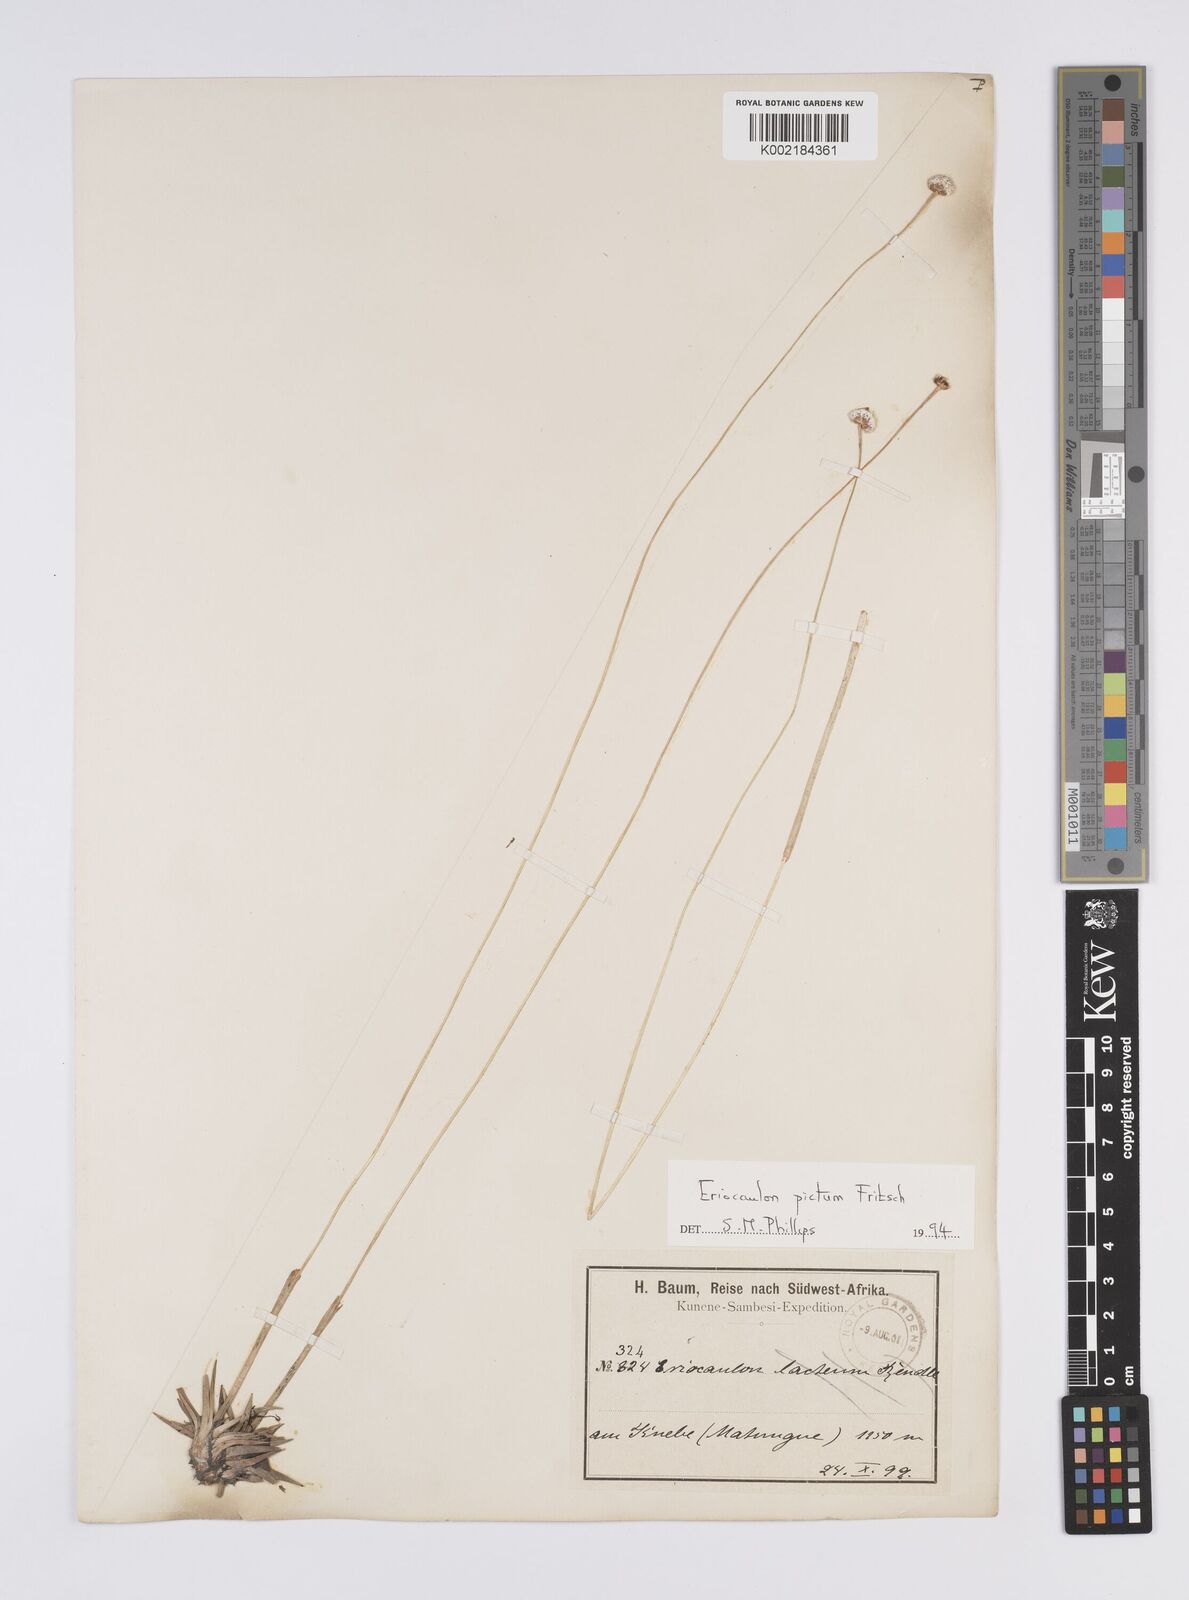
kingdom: Plantae
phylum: Tracheophyta
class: Liliopsida
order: Poales
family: Eriocaulaceae
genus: Eriocaulon
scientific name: Eriocaulon pictum
